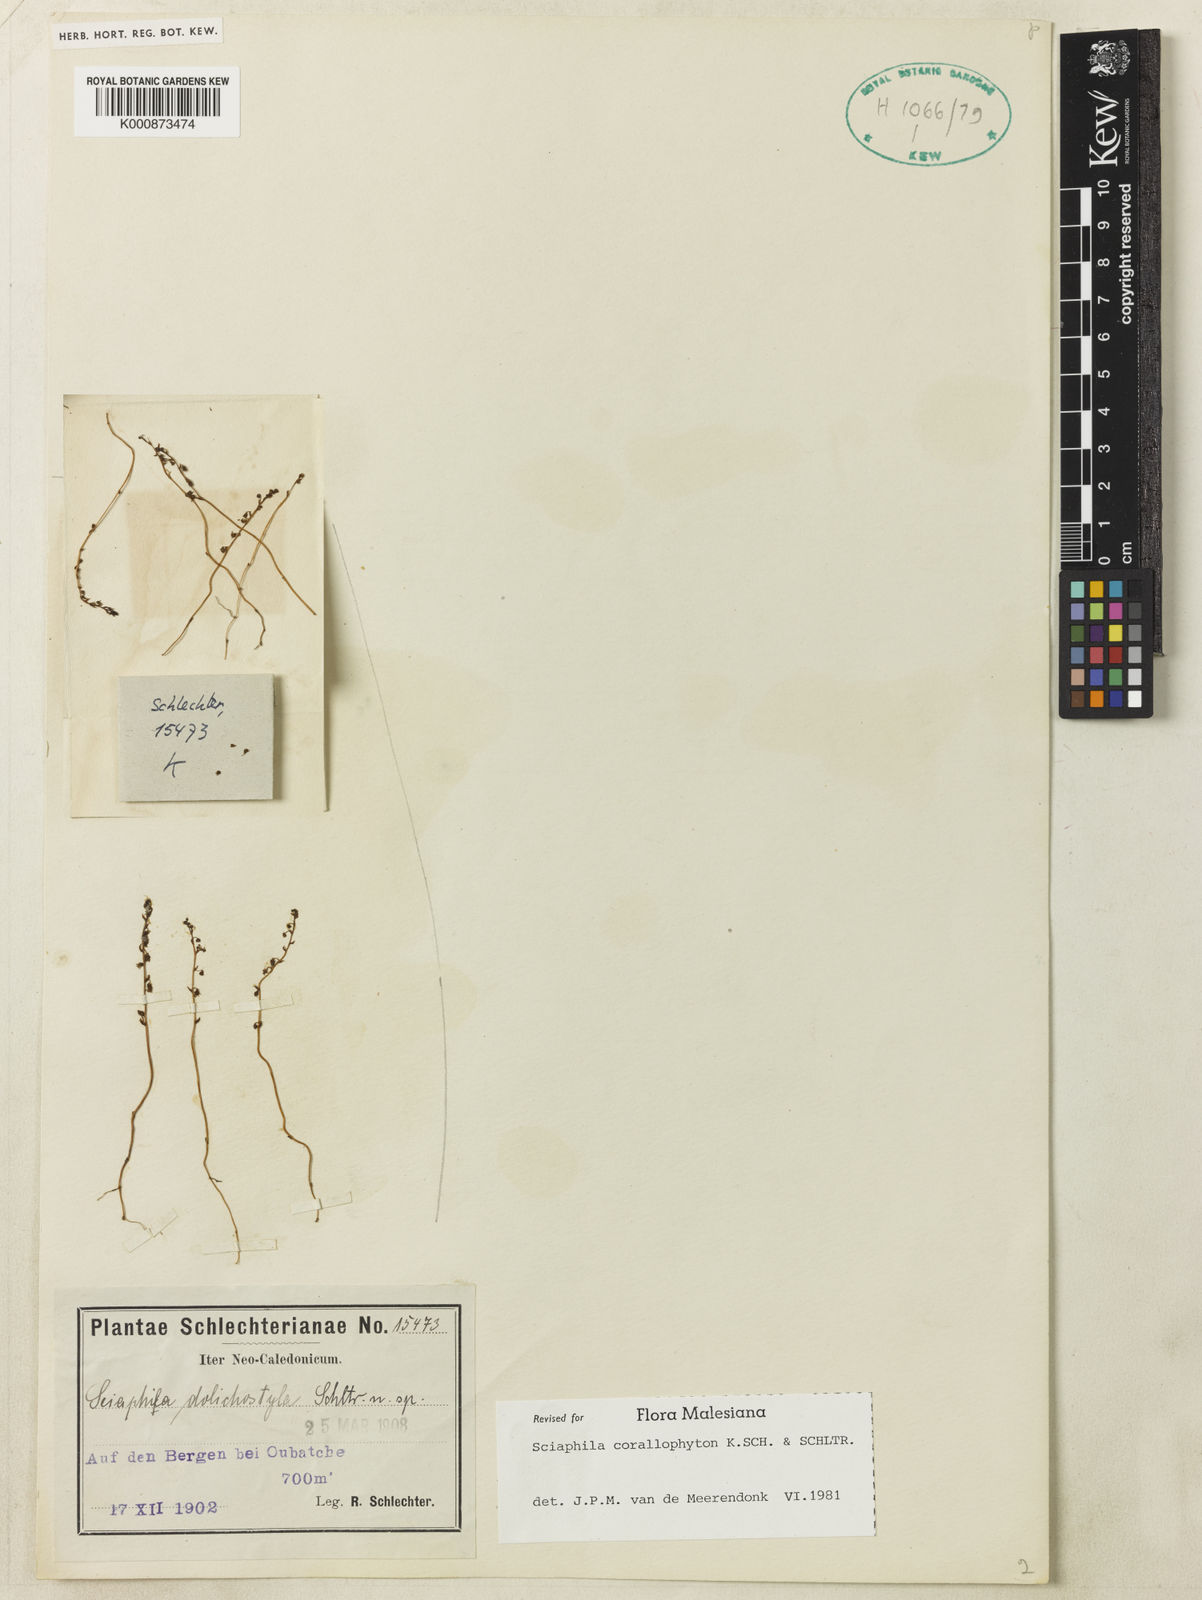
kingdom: Plantae
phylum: Tracheophyta
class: Liliopsida
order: Pandanales
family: Triuridaceae
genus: Sciaphila
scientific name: Sciaphila corallophyton
